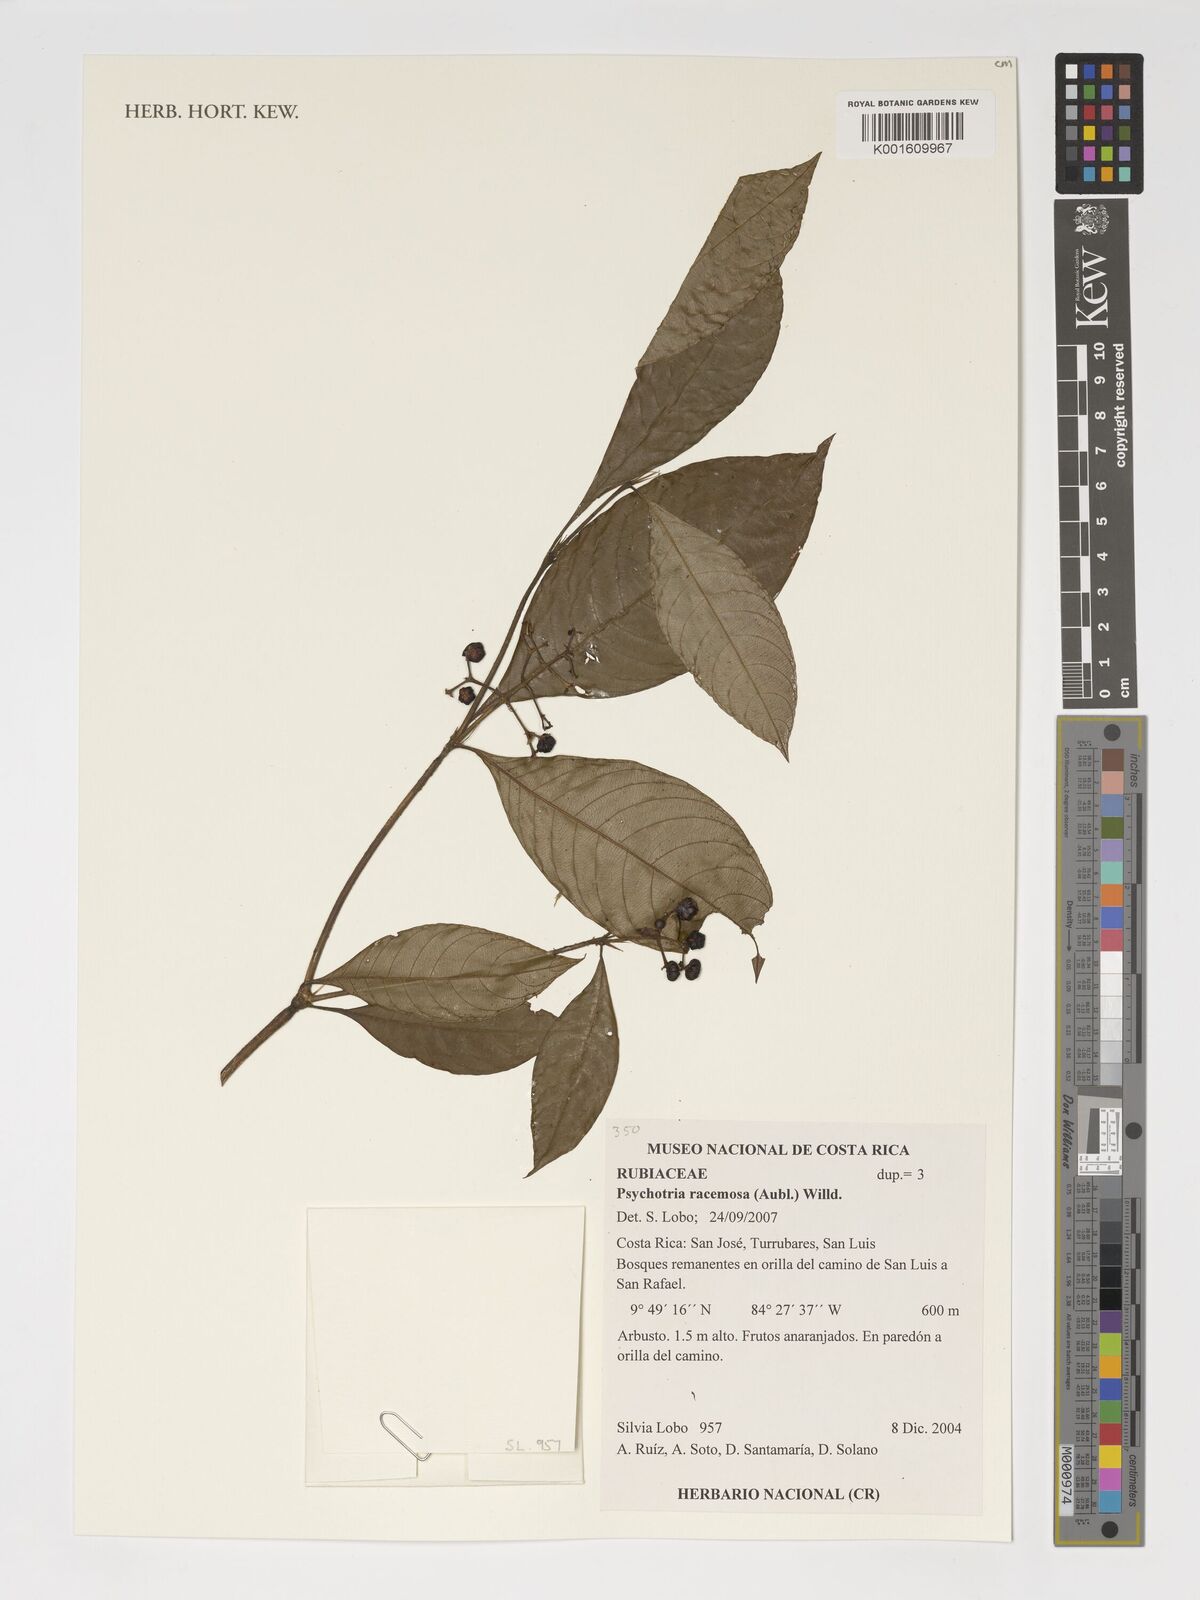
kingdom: Plantae
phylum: Tracheophyta
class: Magnoliopsida
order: Gentianales
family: Rubiaceae
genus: Palicourea
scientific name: Palicourea racemosa
